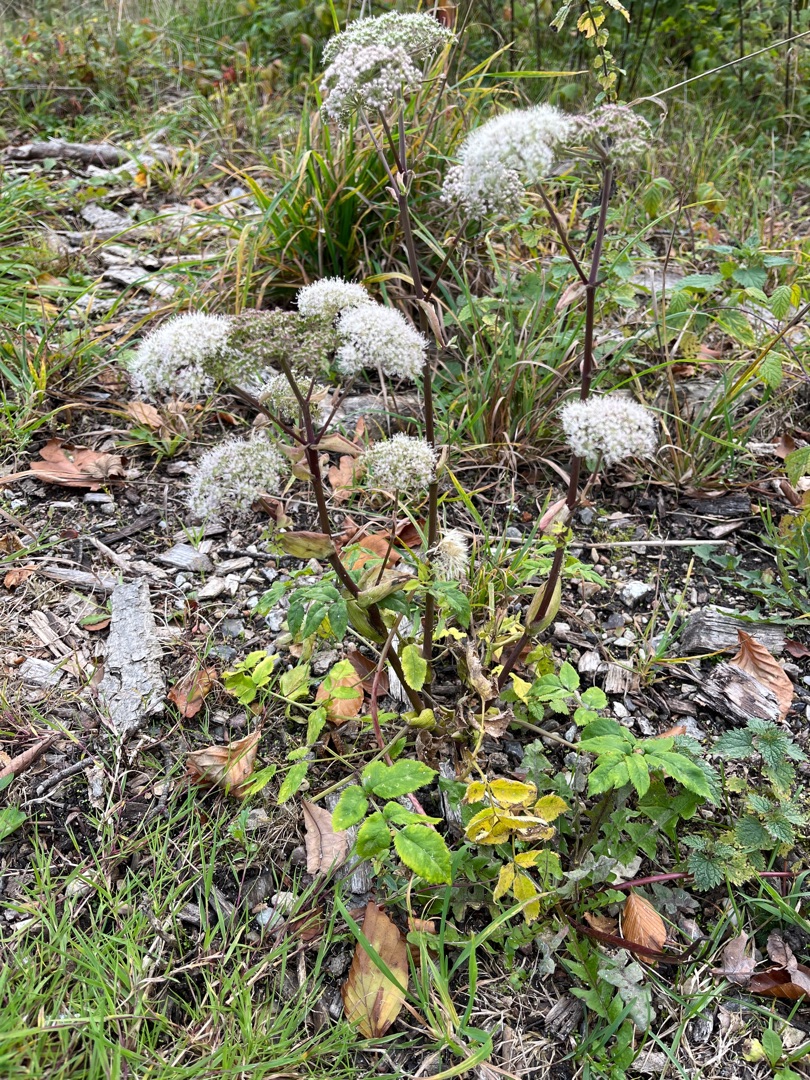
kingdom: Plantae
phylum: Tracheophyta
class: Magnoliopsida
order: Apiales
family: Apiaceae
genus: Angelica
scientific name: Angelica sylvestris
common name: Angelik
